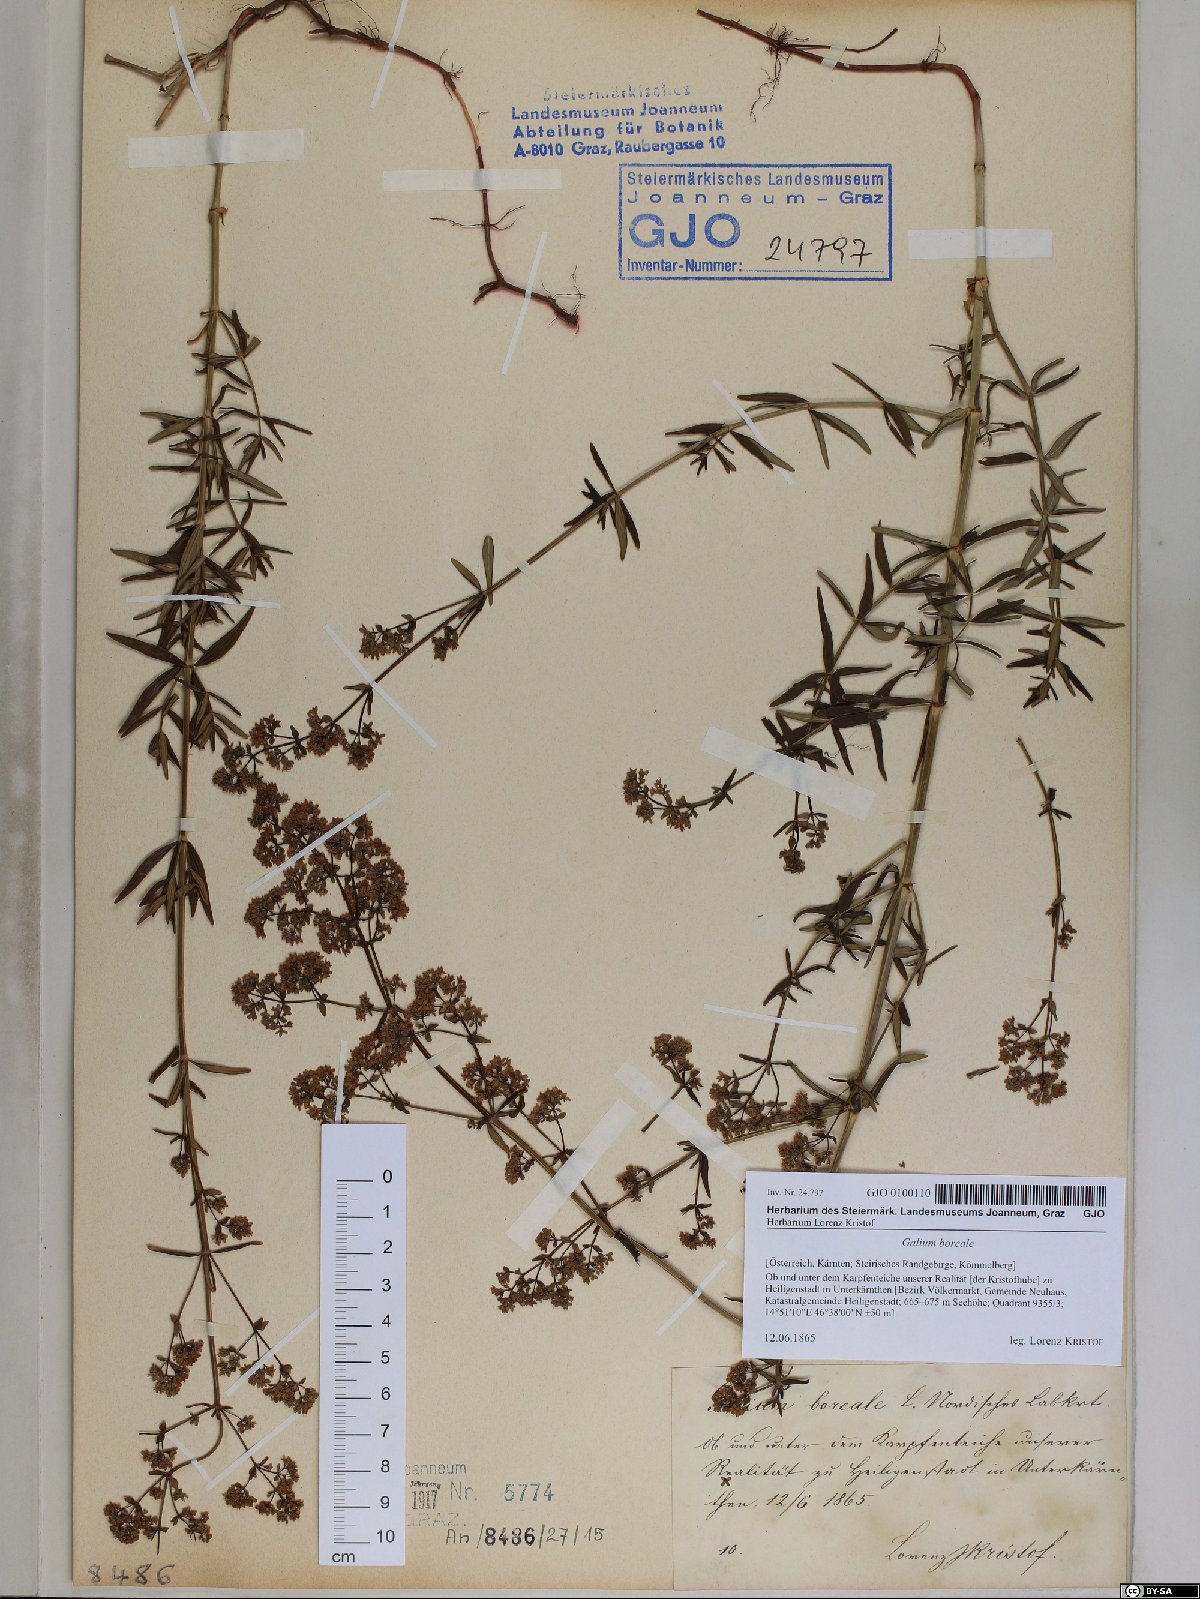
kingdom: Plantae
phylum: Tracheophyta
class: Magnoliopsida
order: Gentianales
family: Rubiaceae
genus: Galium
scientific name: Galium boreale
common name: Northern bedstraw
